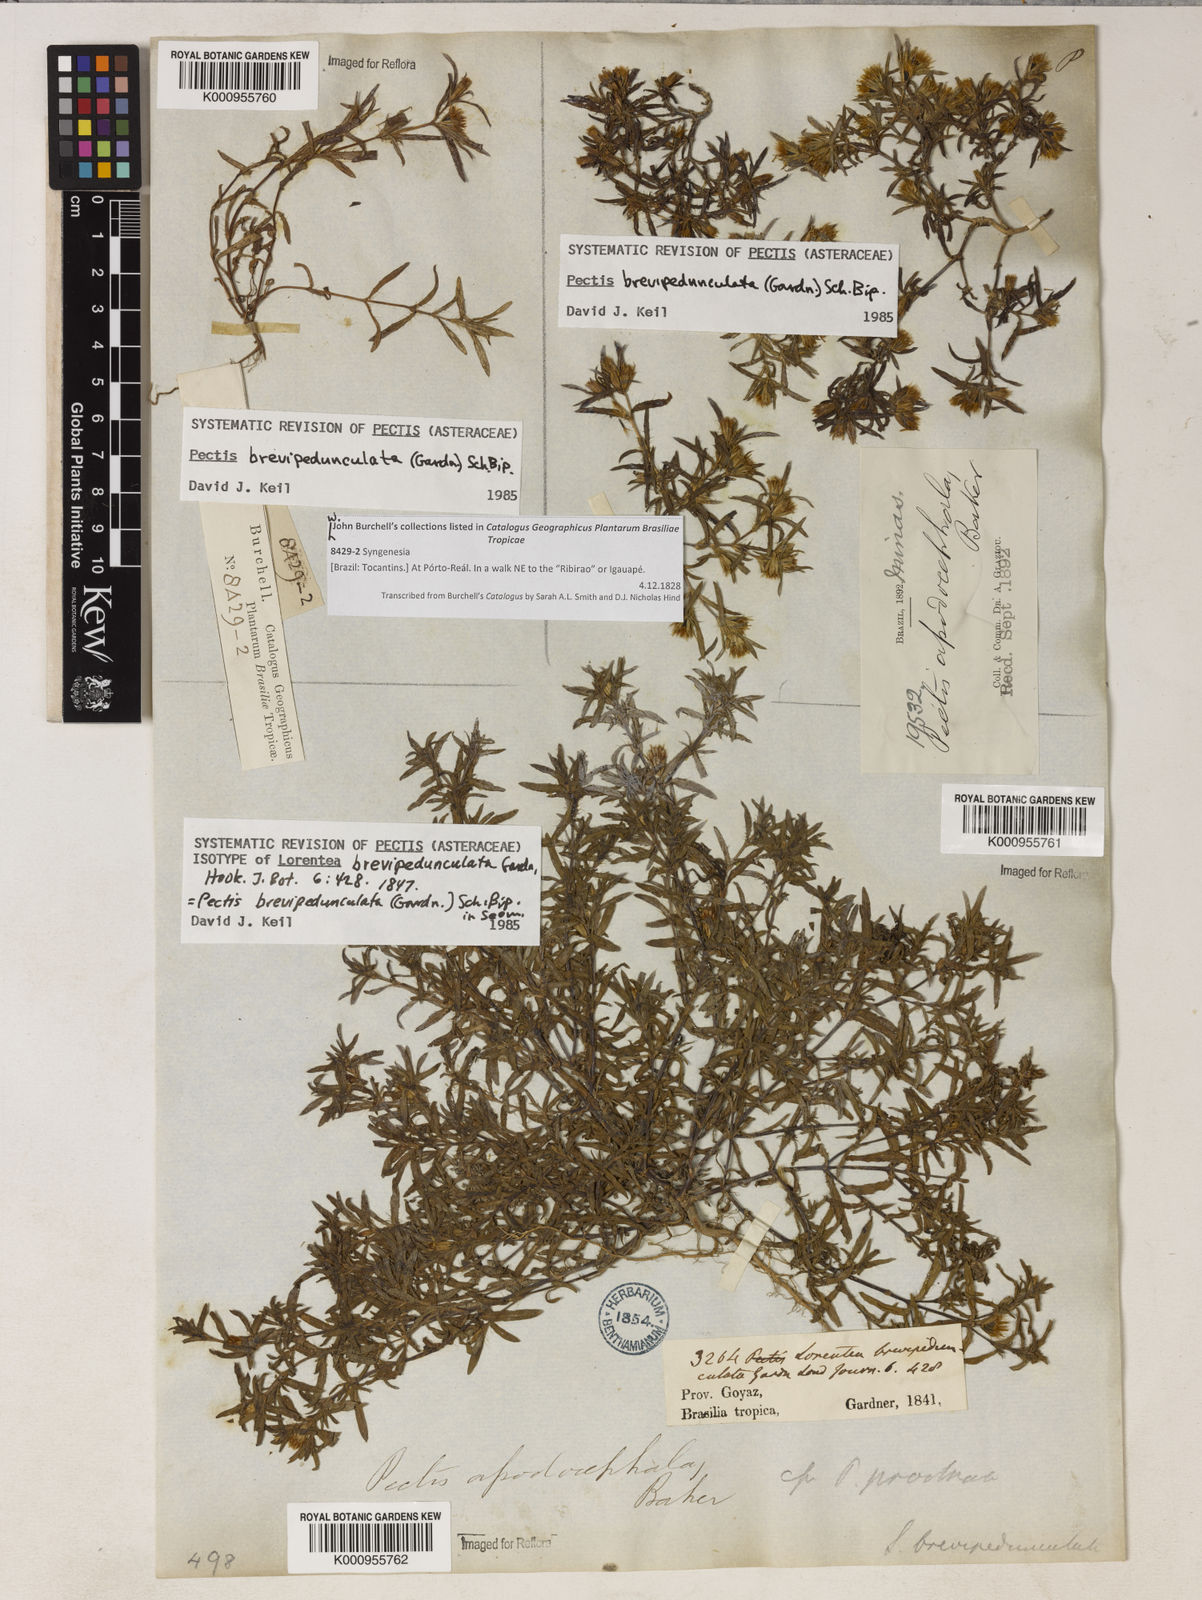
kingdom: Plantae
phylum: Tracheophyta
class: Magnoliopsida
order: Asterales
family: Asteraceae
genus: Pectis
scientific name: Pectis brevipedunculata
